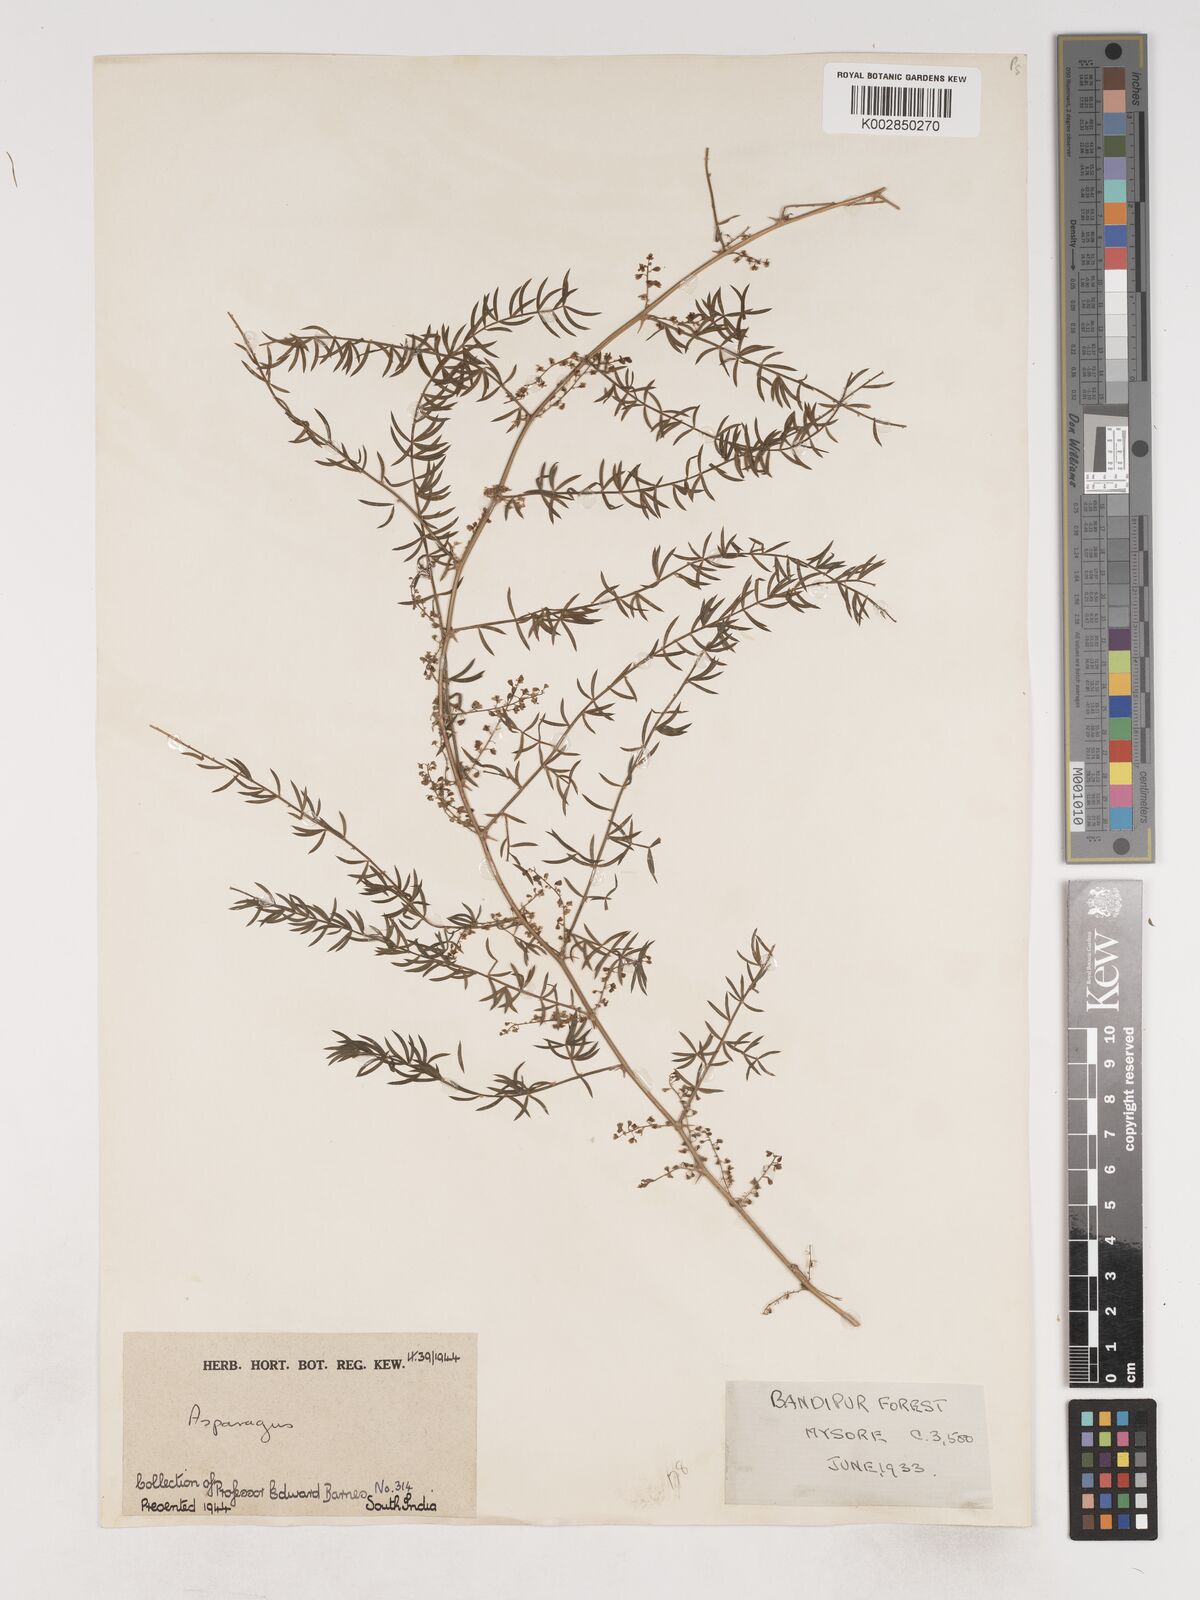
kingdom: Plantae
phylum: Tracheophyta
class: Liliopsida
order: Asparagales
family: Asparagaceae
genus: Asparagus
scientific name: Asparagus
